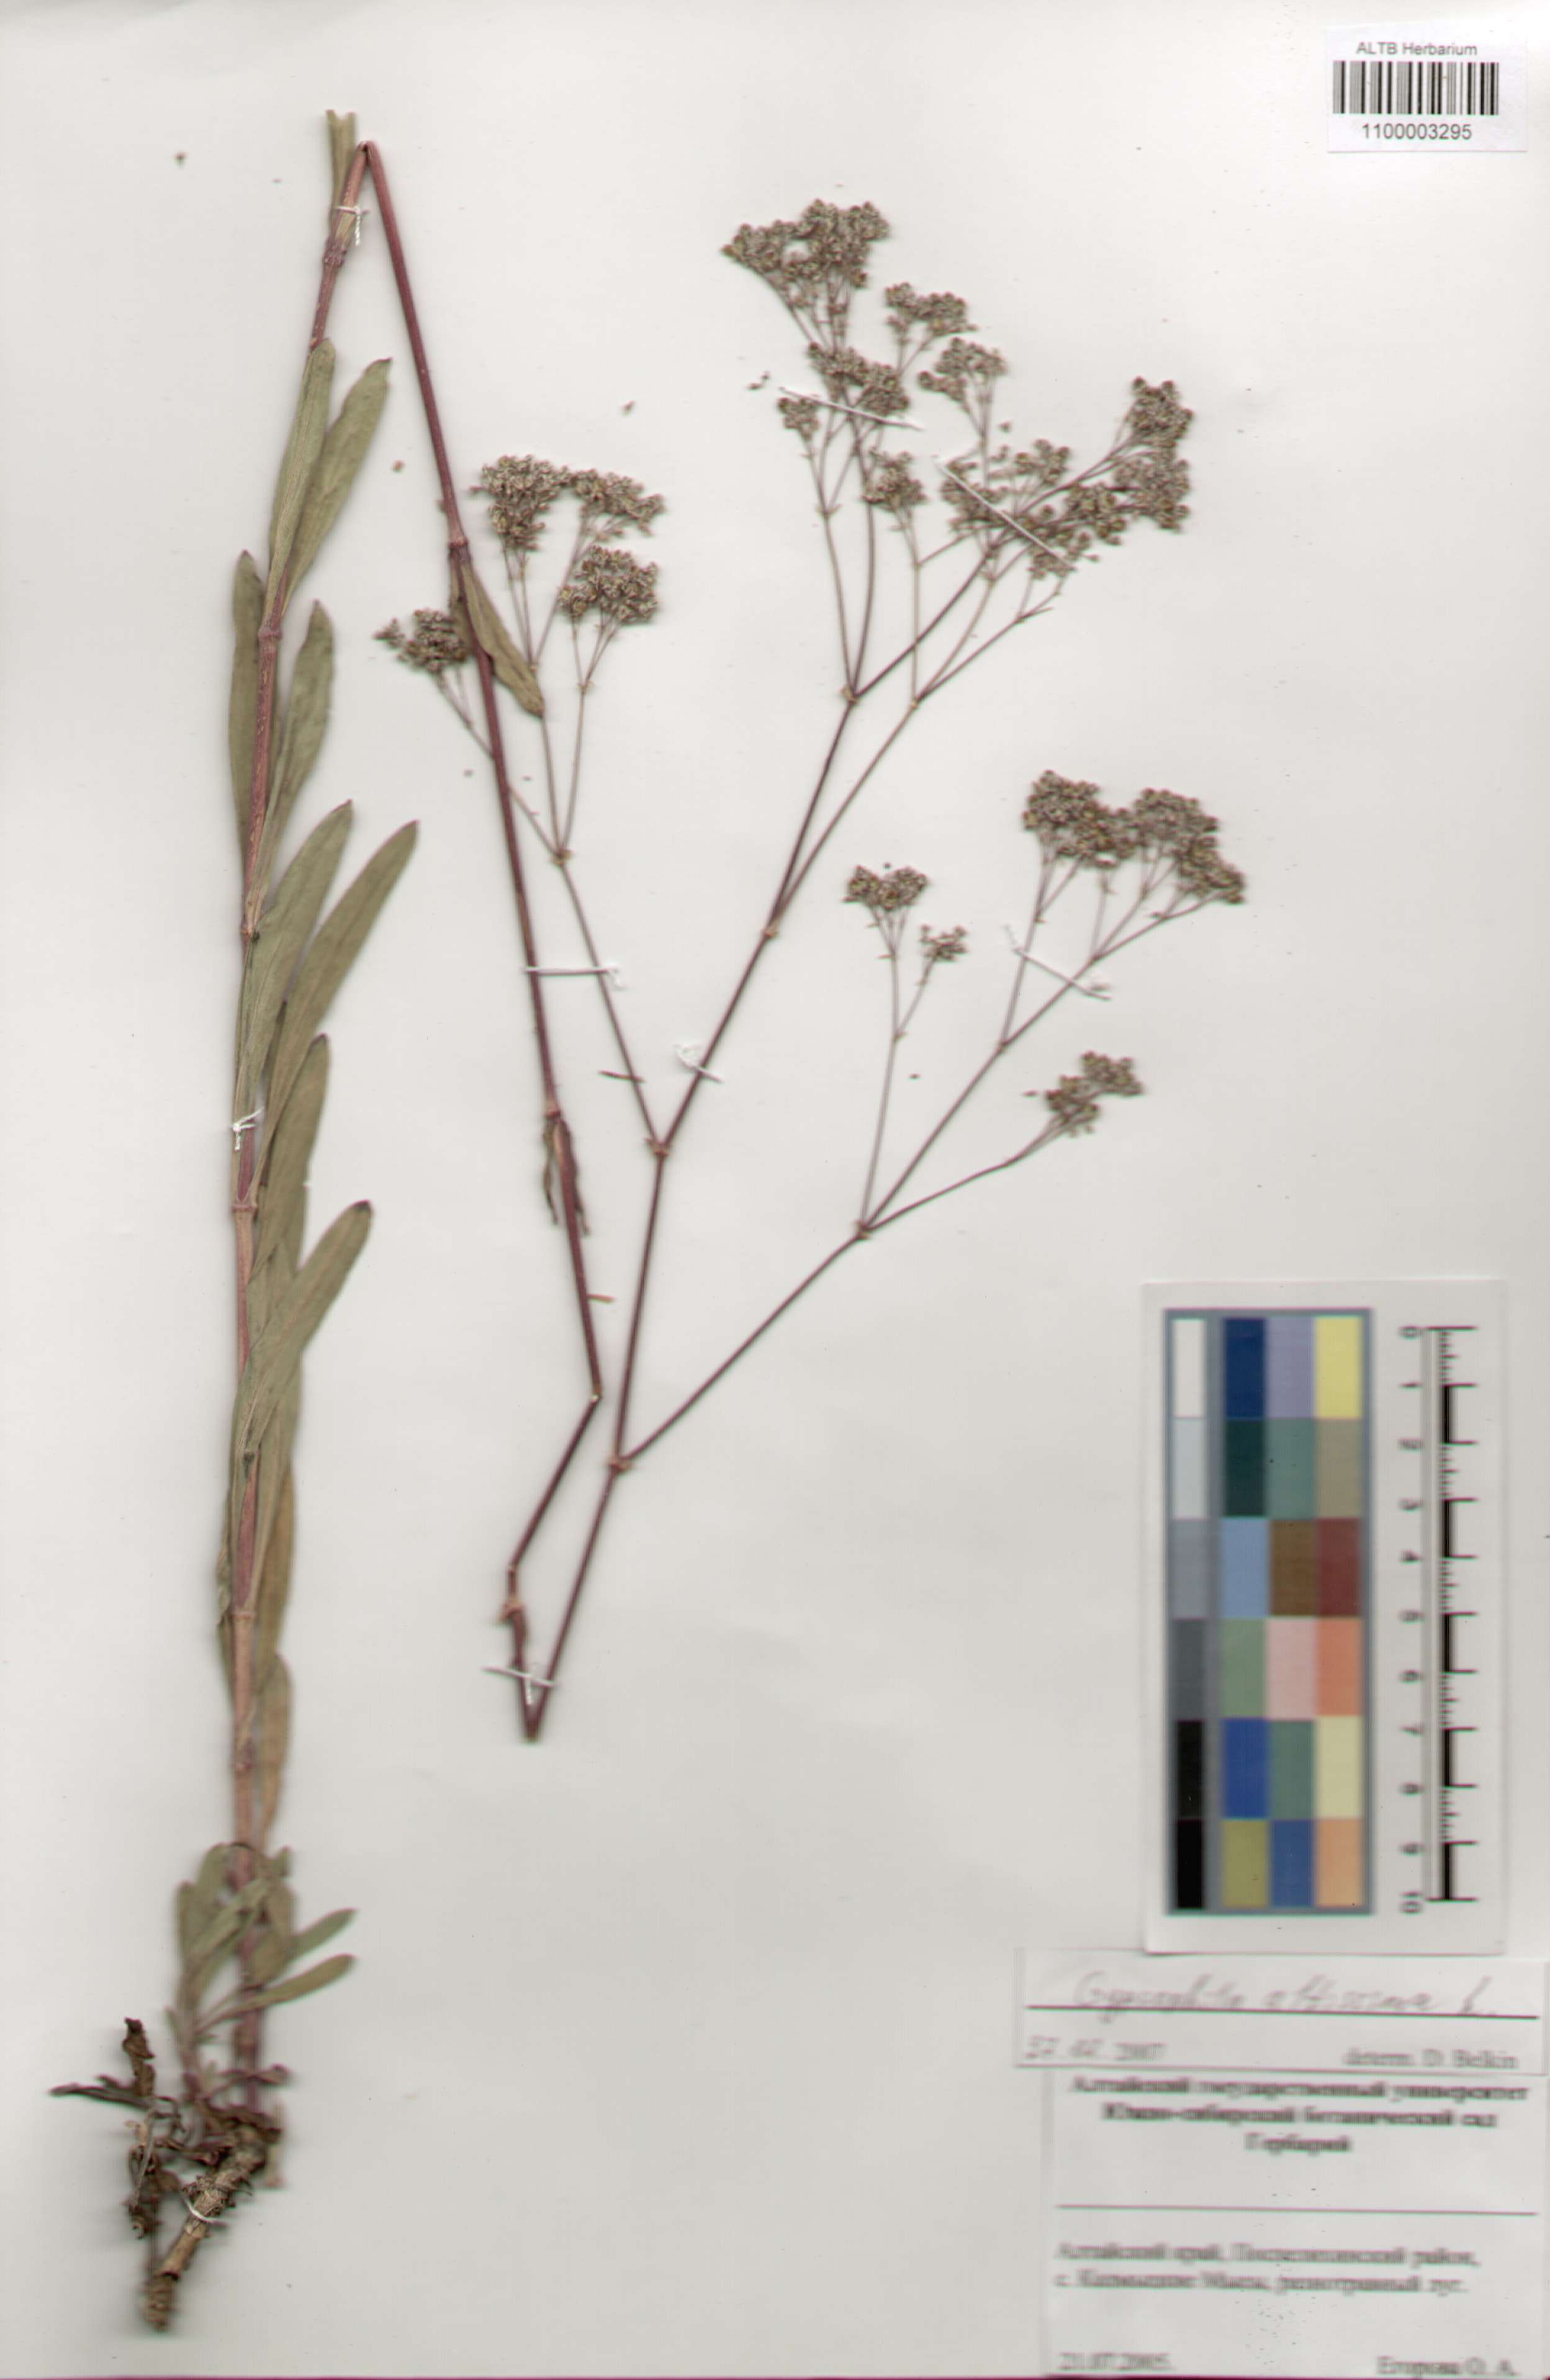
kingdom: Plantae
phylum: Tracheophyta
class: Magnoliopsida
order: Caryophyllales
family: Caryophyllaceae
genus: Gypsophila
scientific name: Gypsophila altissima
